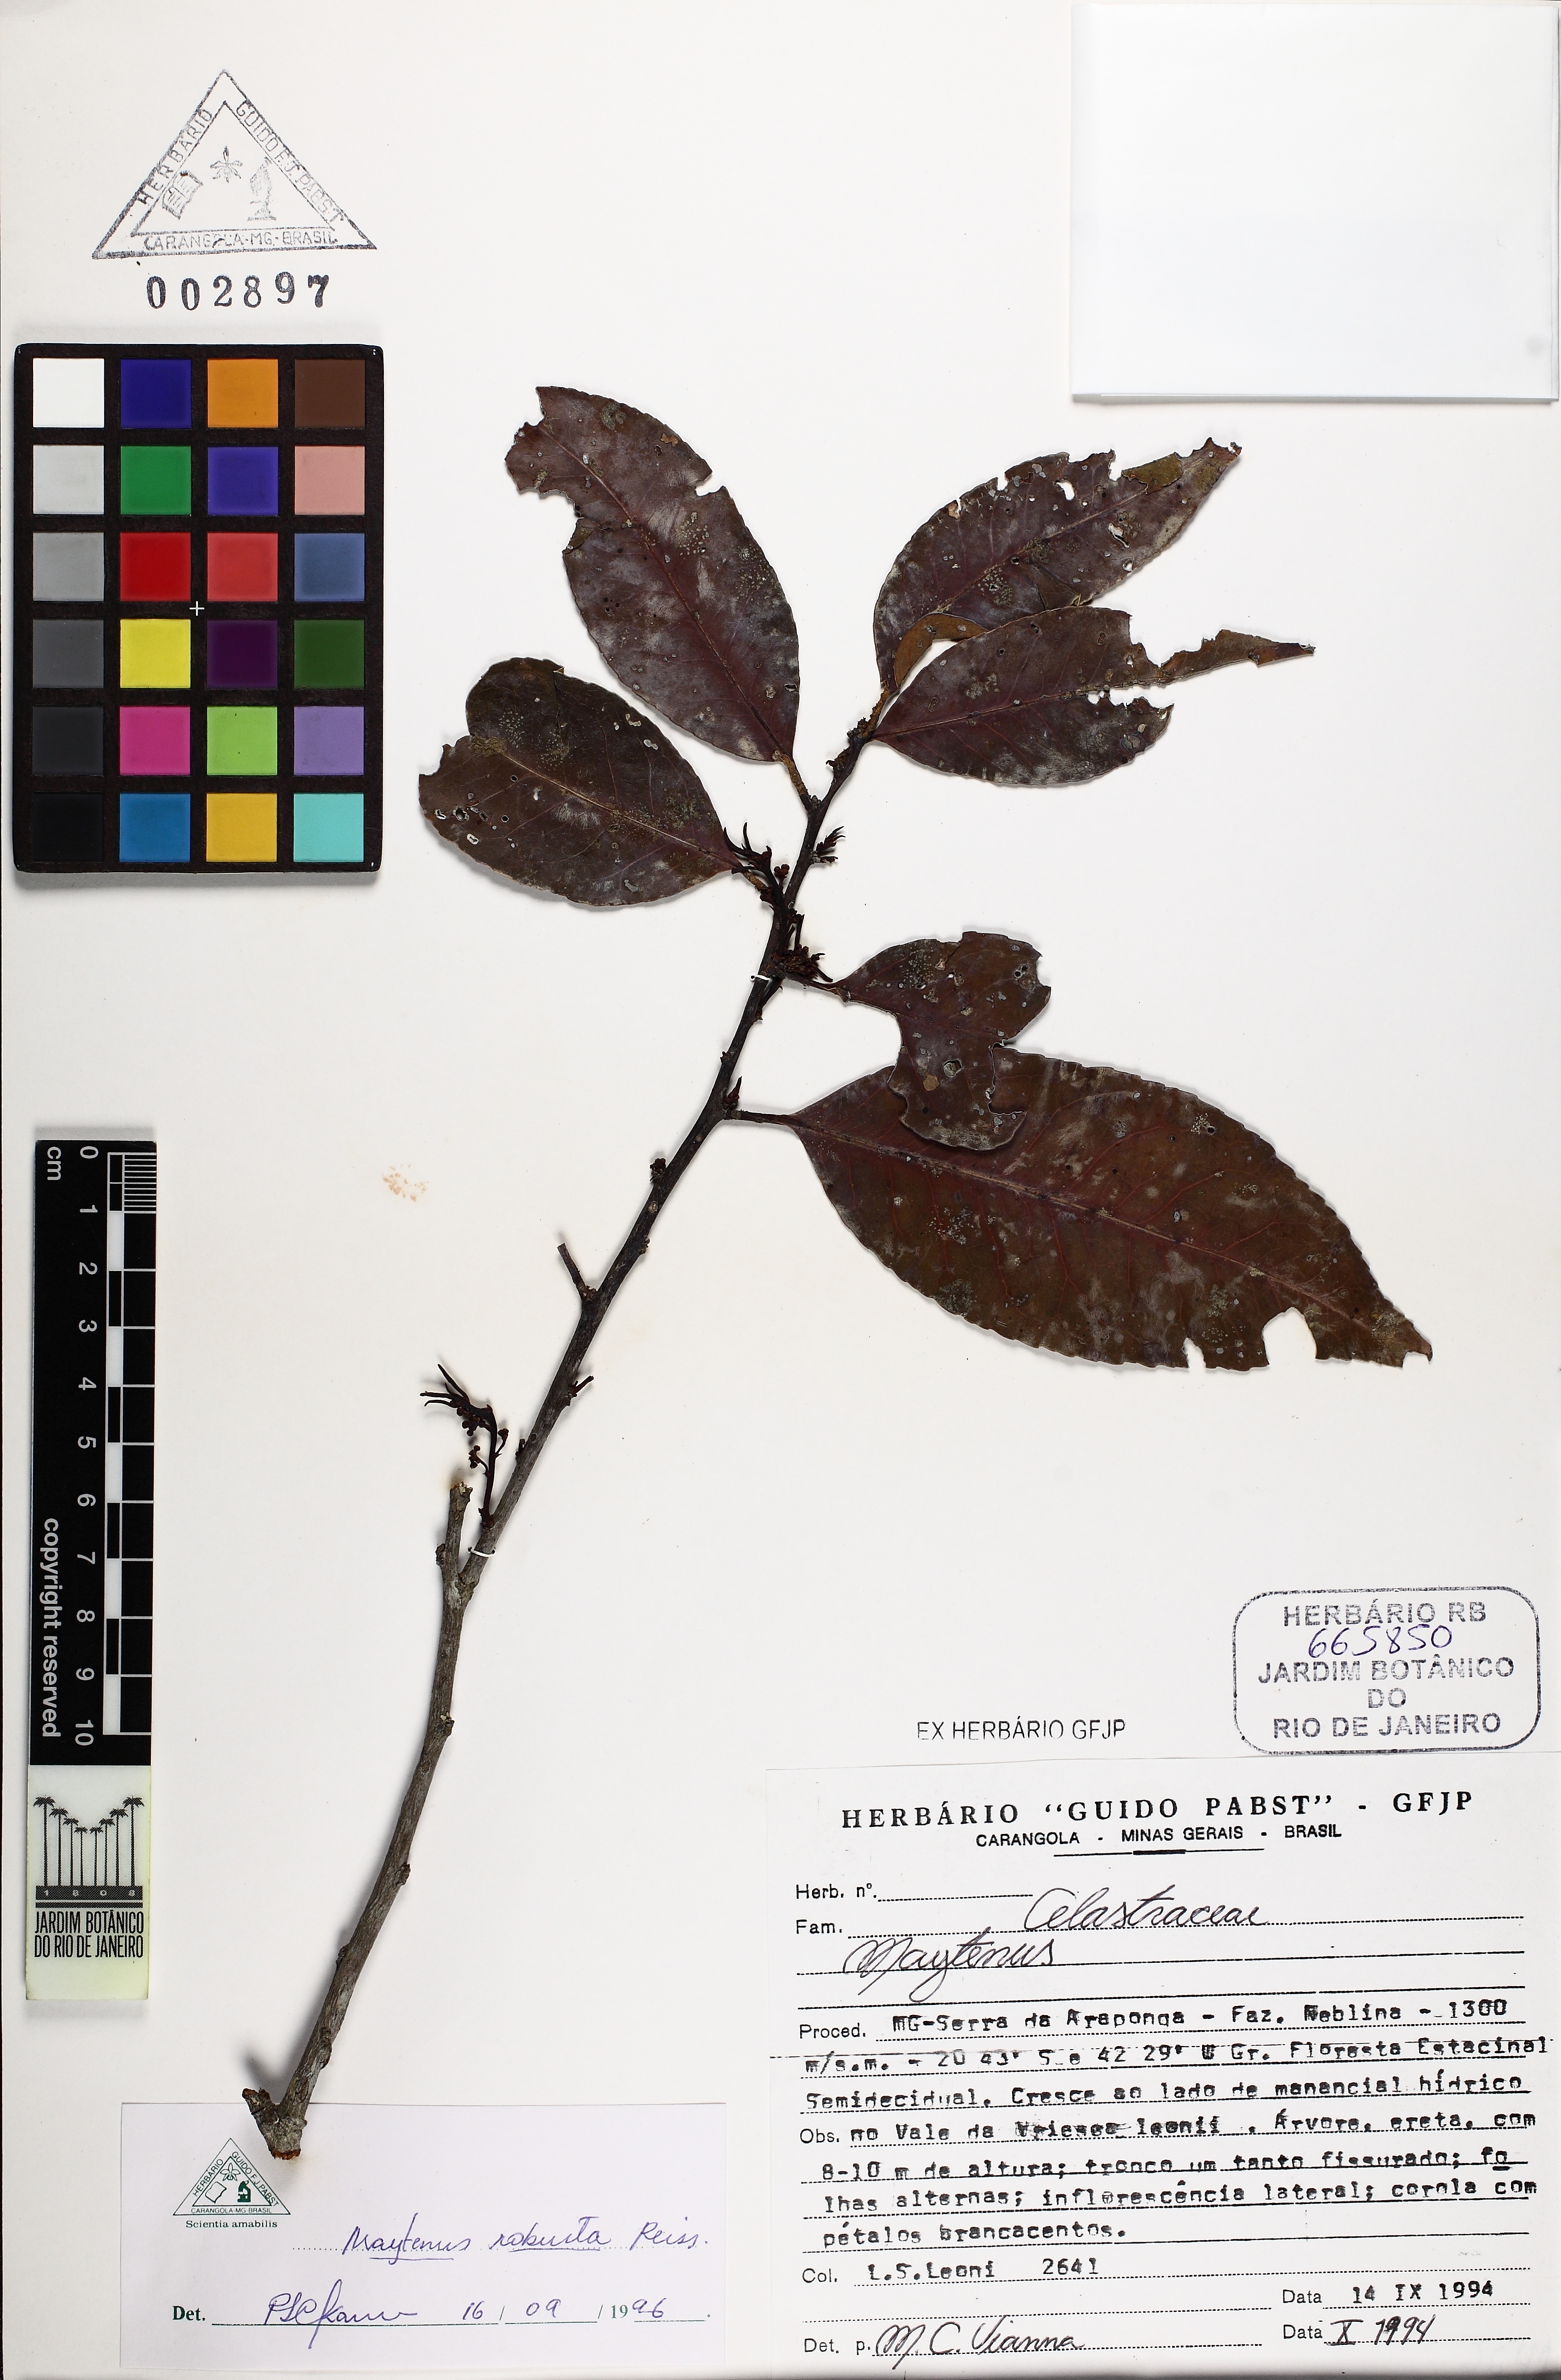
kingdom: Plantae
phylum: Tracheophyta
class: Magnoliopsida
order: Celastrales
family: Celastraceae
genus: Monteverdia
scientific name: Monteverdia gonoclada
